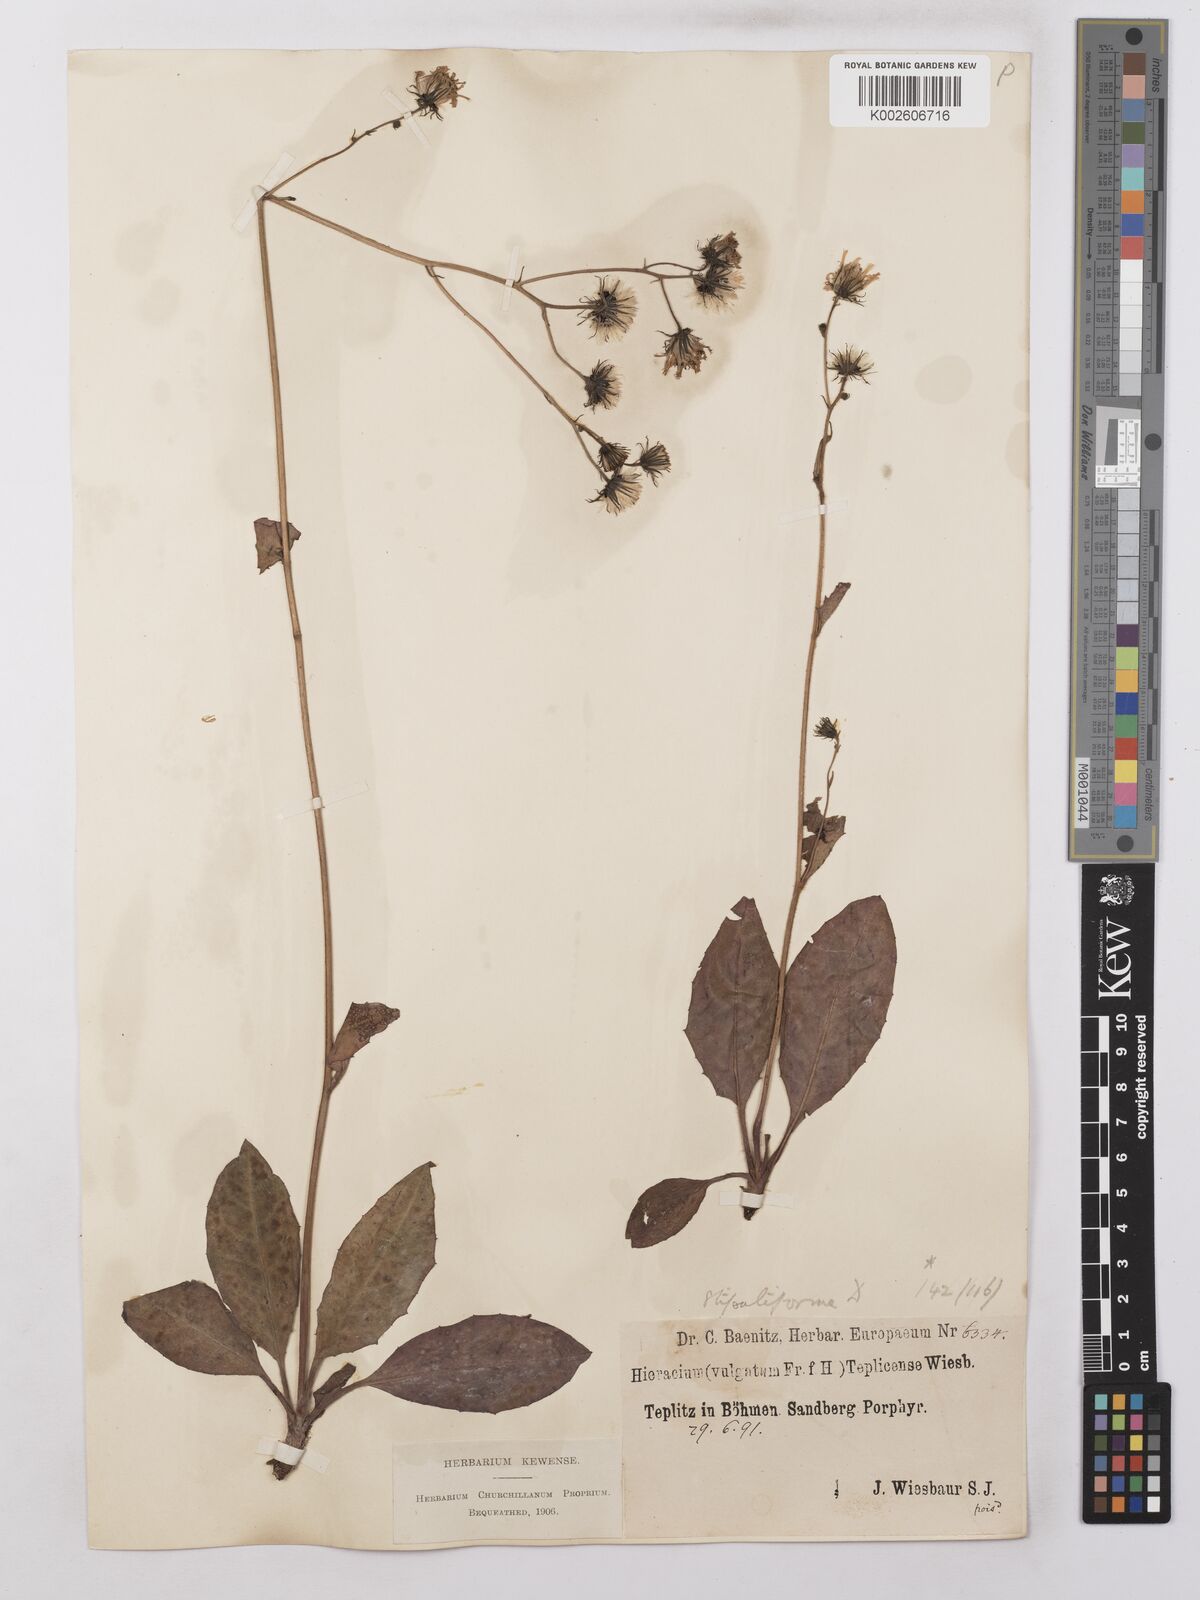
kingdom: Plantae
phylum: Tracheophyta
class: Magnoliopsida
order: Asterales
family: Asteraceae
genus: Hieracium
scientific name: Hieracium lachenalii
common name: Common hawkweed
